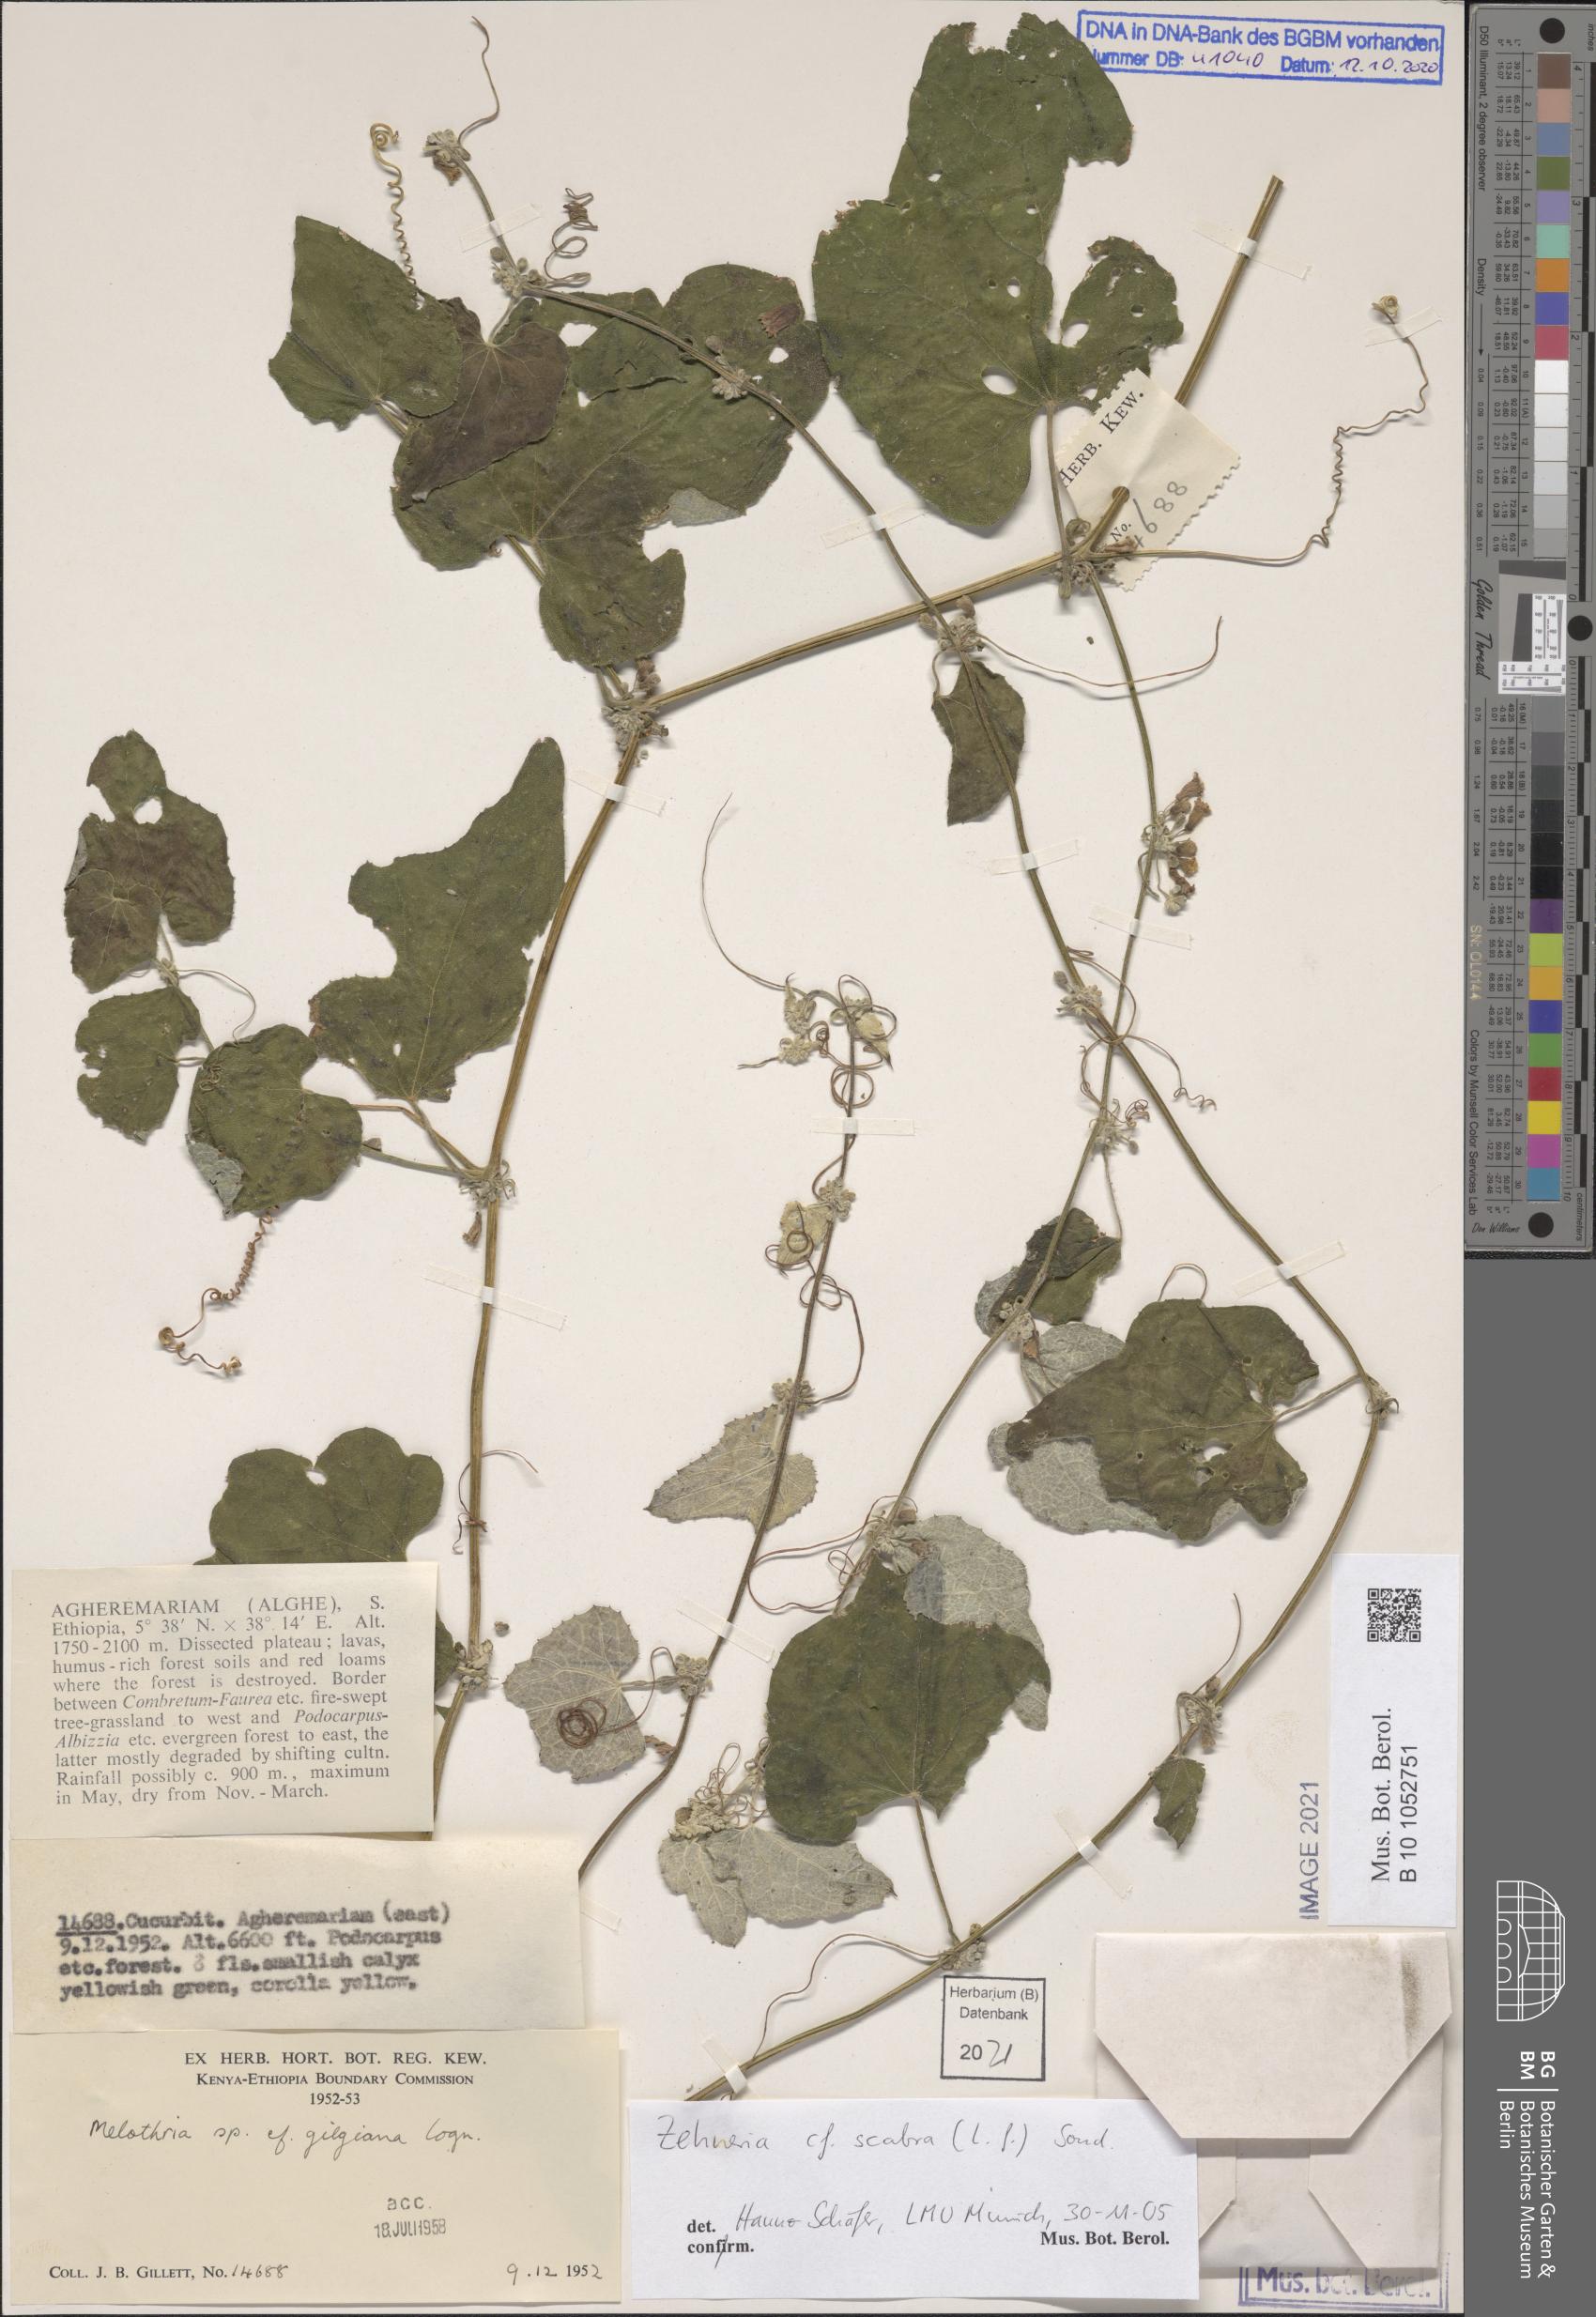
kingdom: Plantae
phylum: Tracheophyta
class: Magnoliopsida
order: Cucurbitales
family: Cucurbitaceae
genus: Zehneria
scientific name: Zehneria scabra
